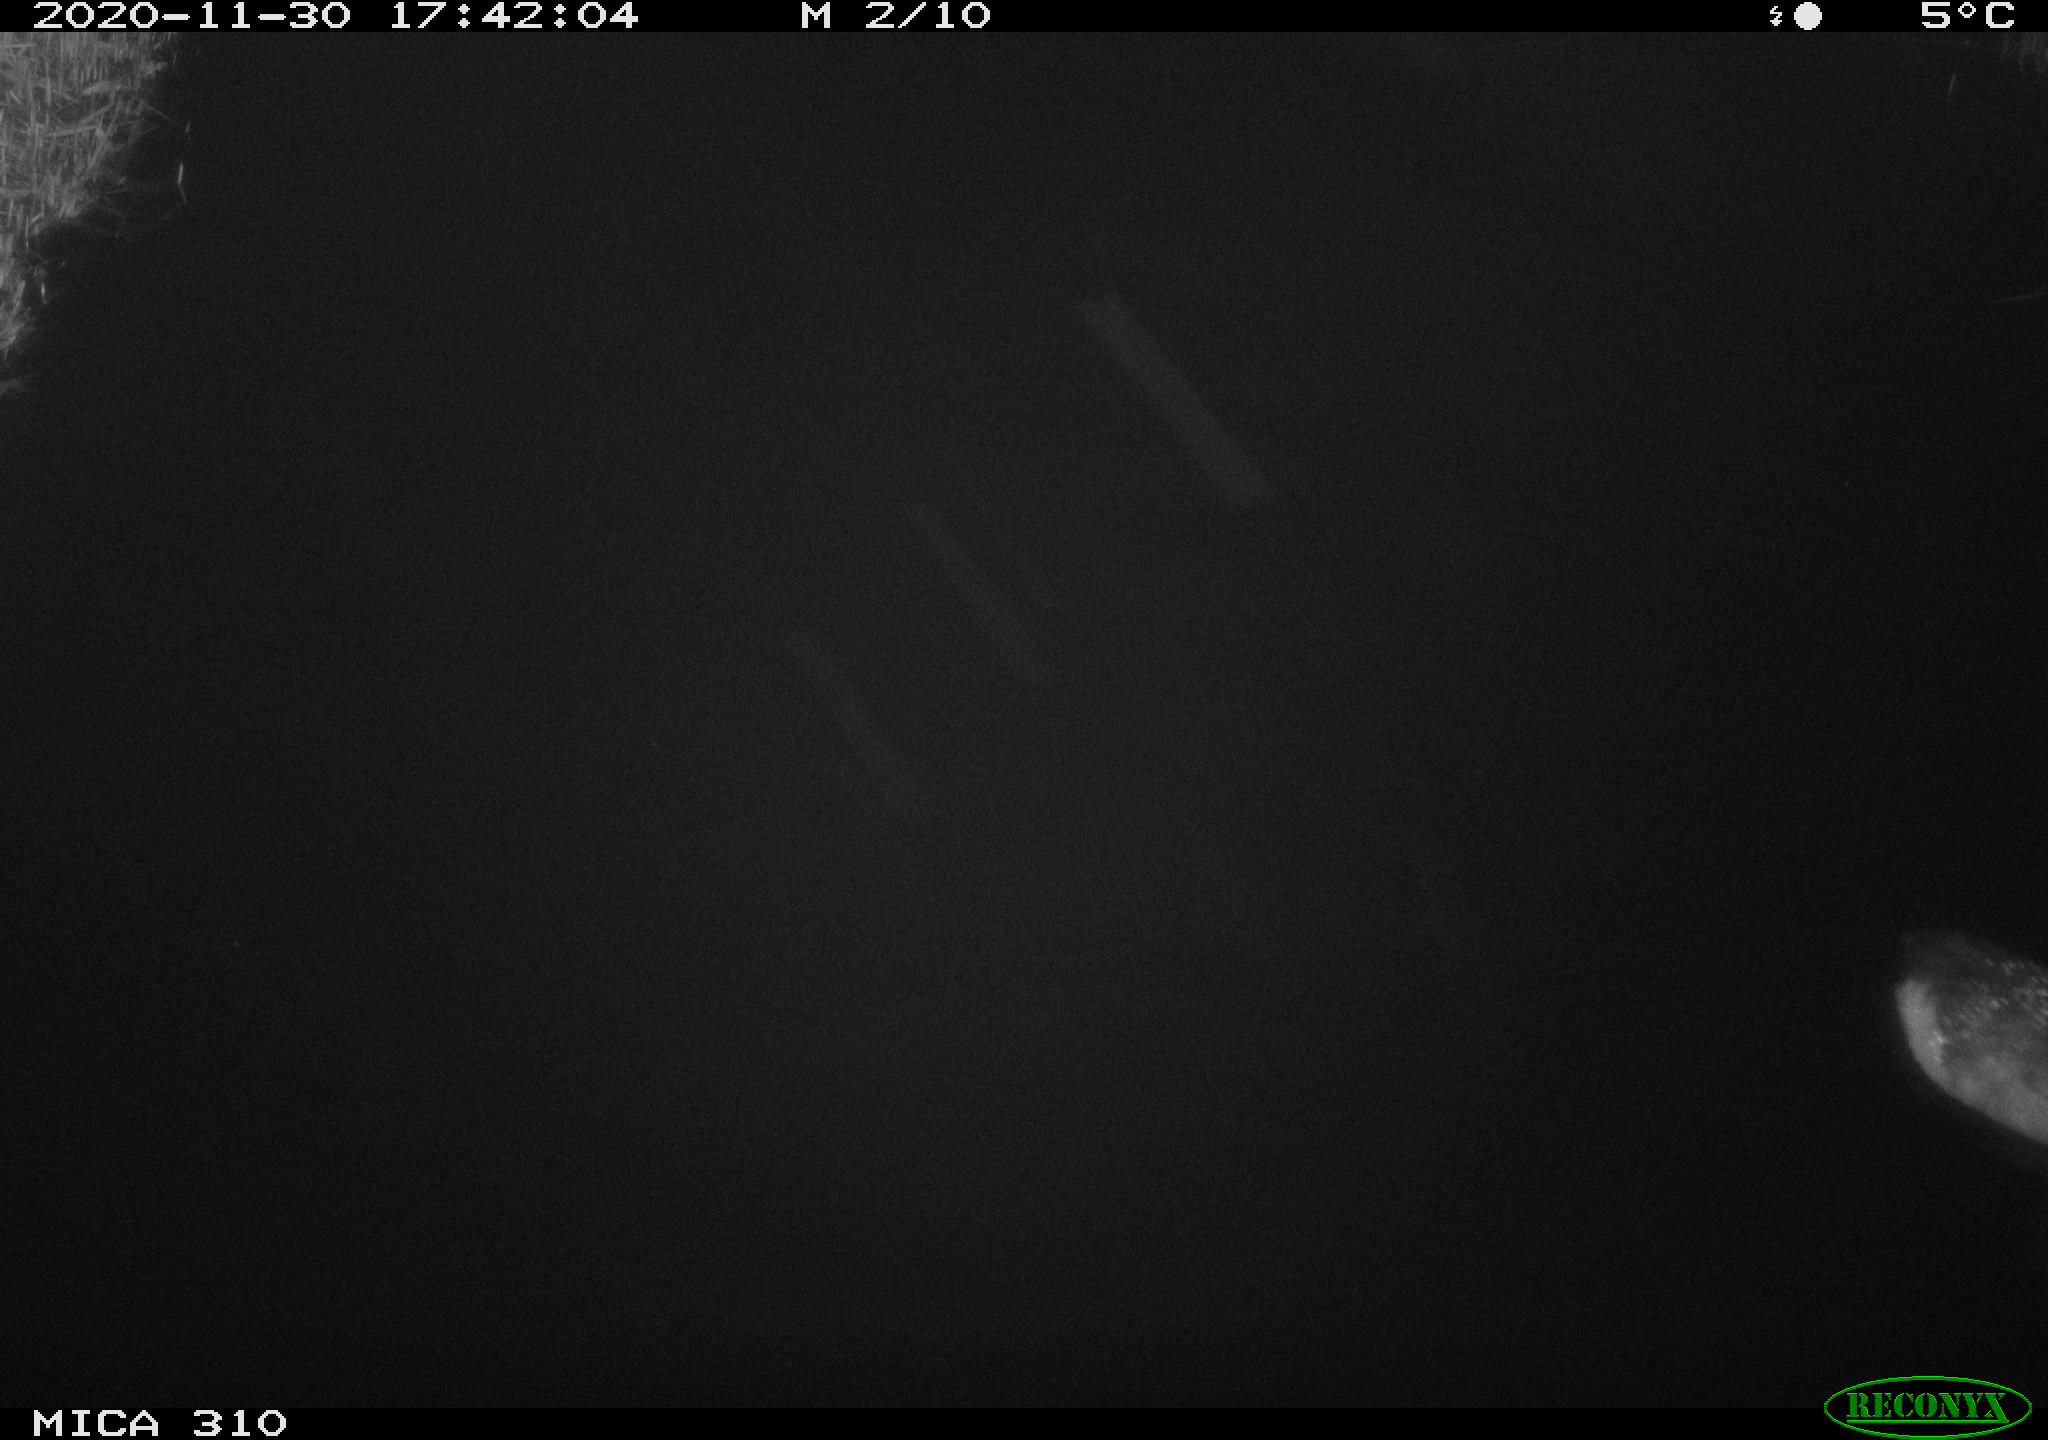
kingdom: Animalia
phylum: Chordata
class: Aves
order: Gruiformes
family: Rallidae
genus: Fulica
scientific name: Fulica atra
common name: Eurasian coot
